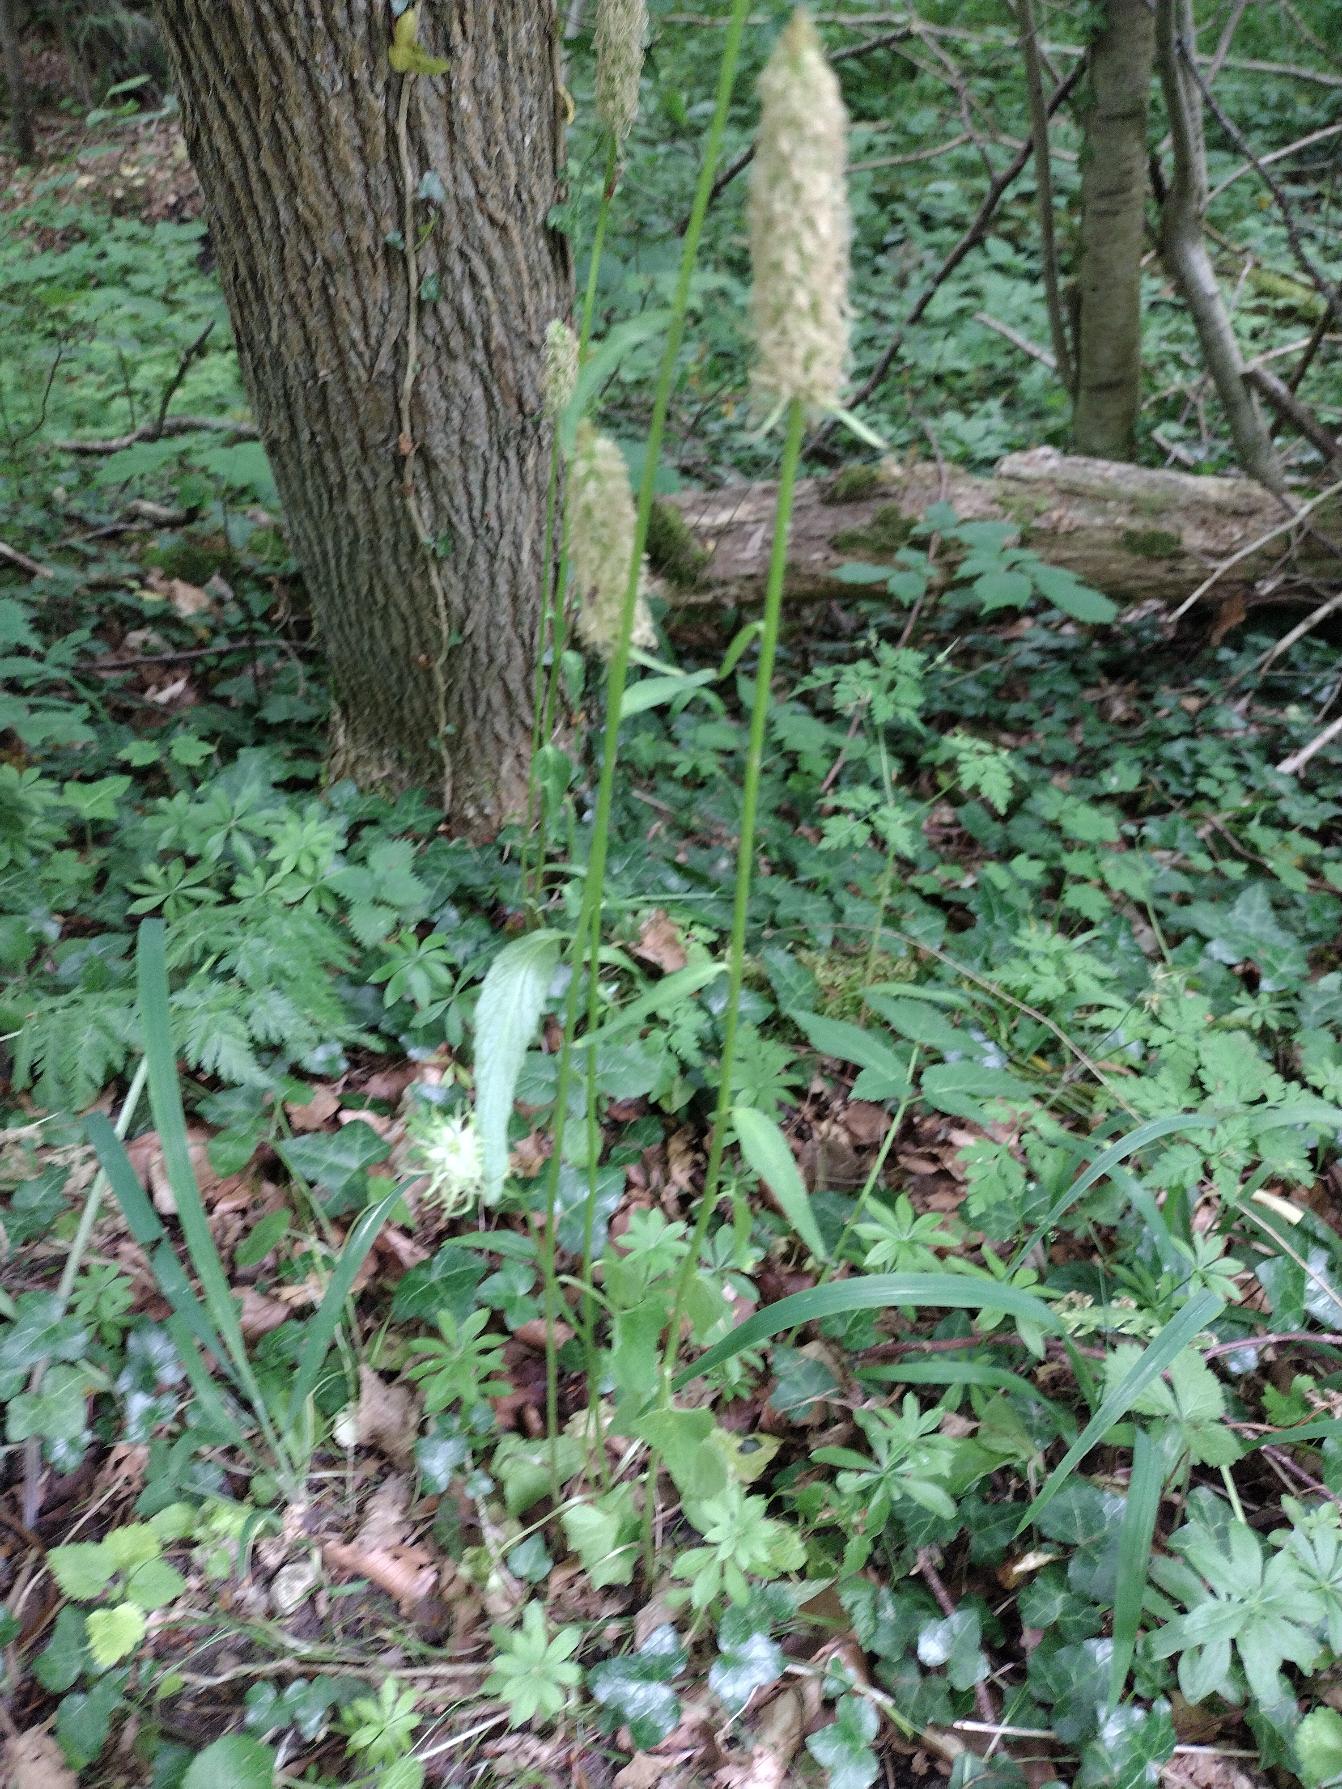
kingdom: Plantae
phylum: Tracheophyta
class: Magnoliopsida
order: Asterales
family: Campanulaceae
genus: Phyteuma
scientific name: Phyteuma spicatum
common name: Aks-rapunsel
